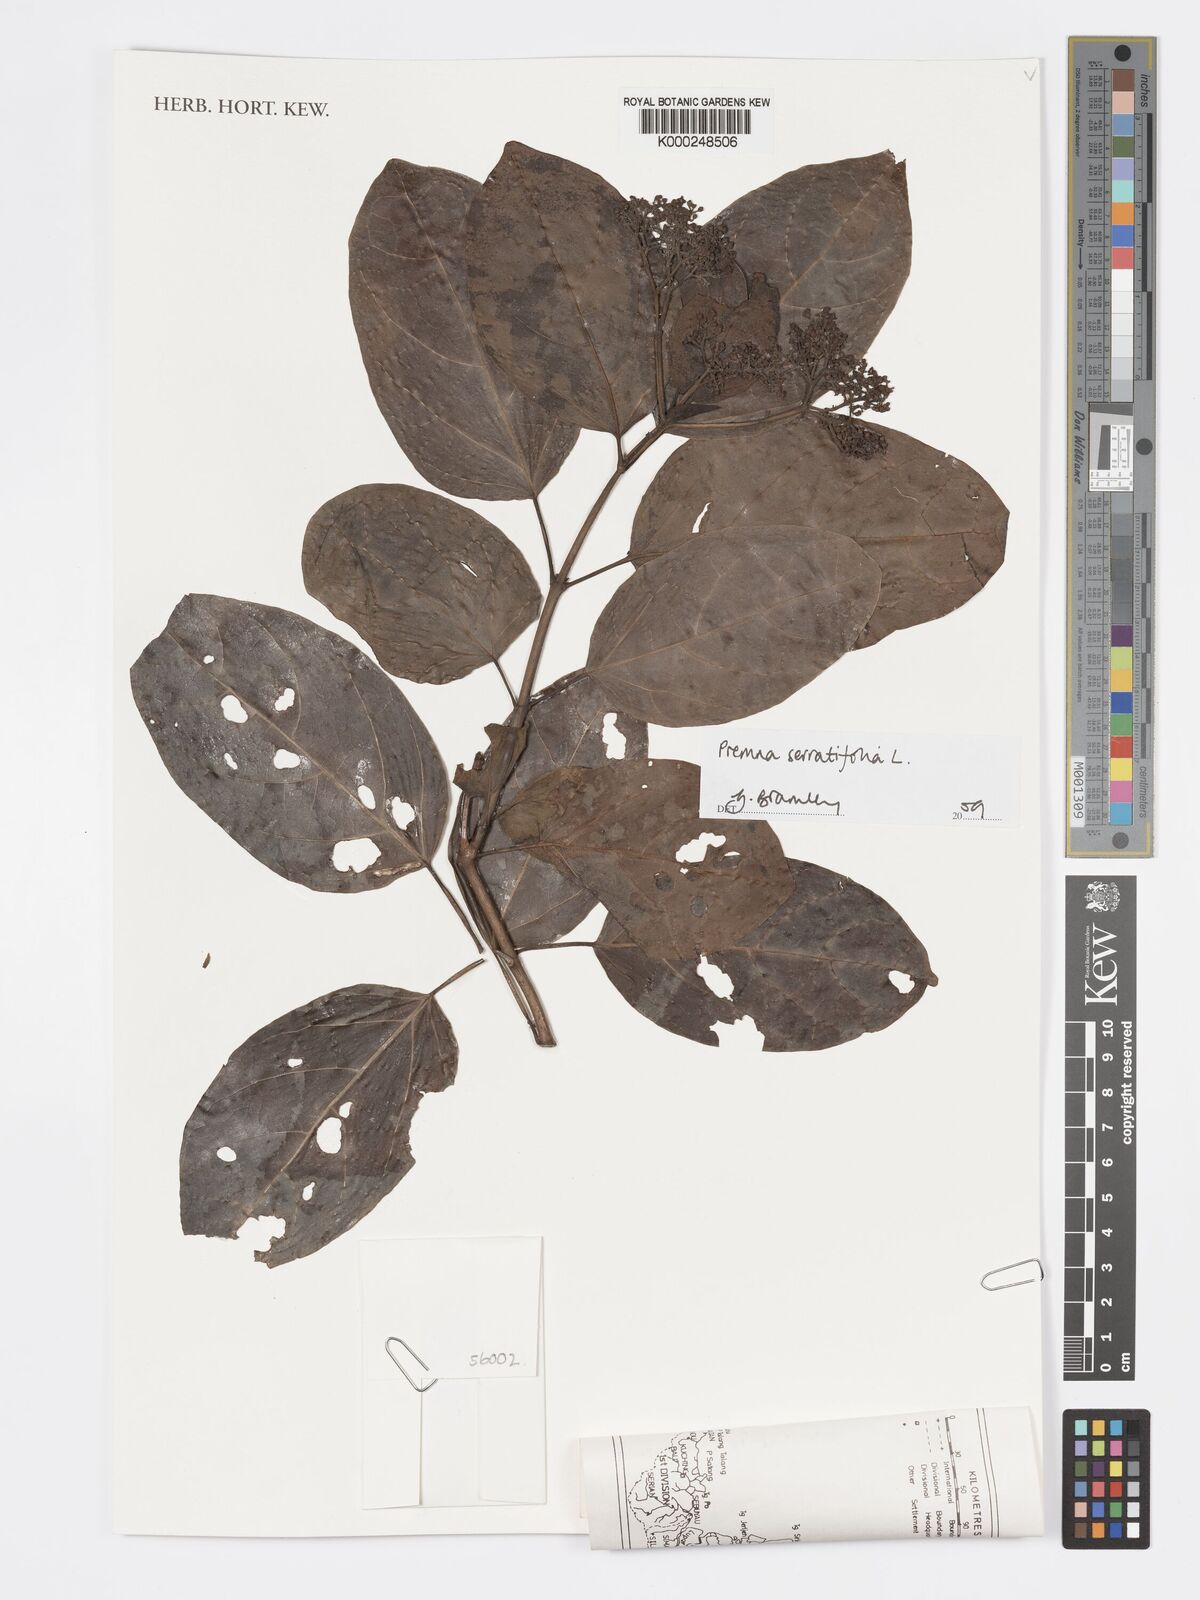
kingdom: Plantae
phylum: Tracheophyta
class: Magnoliopsida
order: Lamiales
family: Lamiaceae
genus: Premna
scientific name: Premna serratifolia
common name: Bastard guelder
